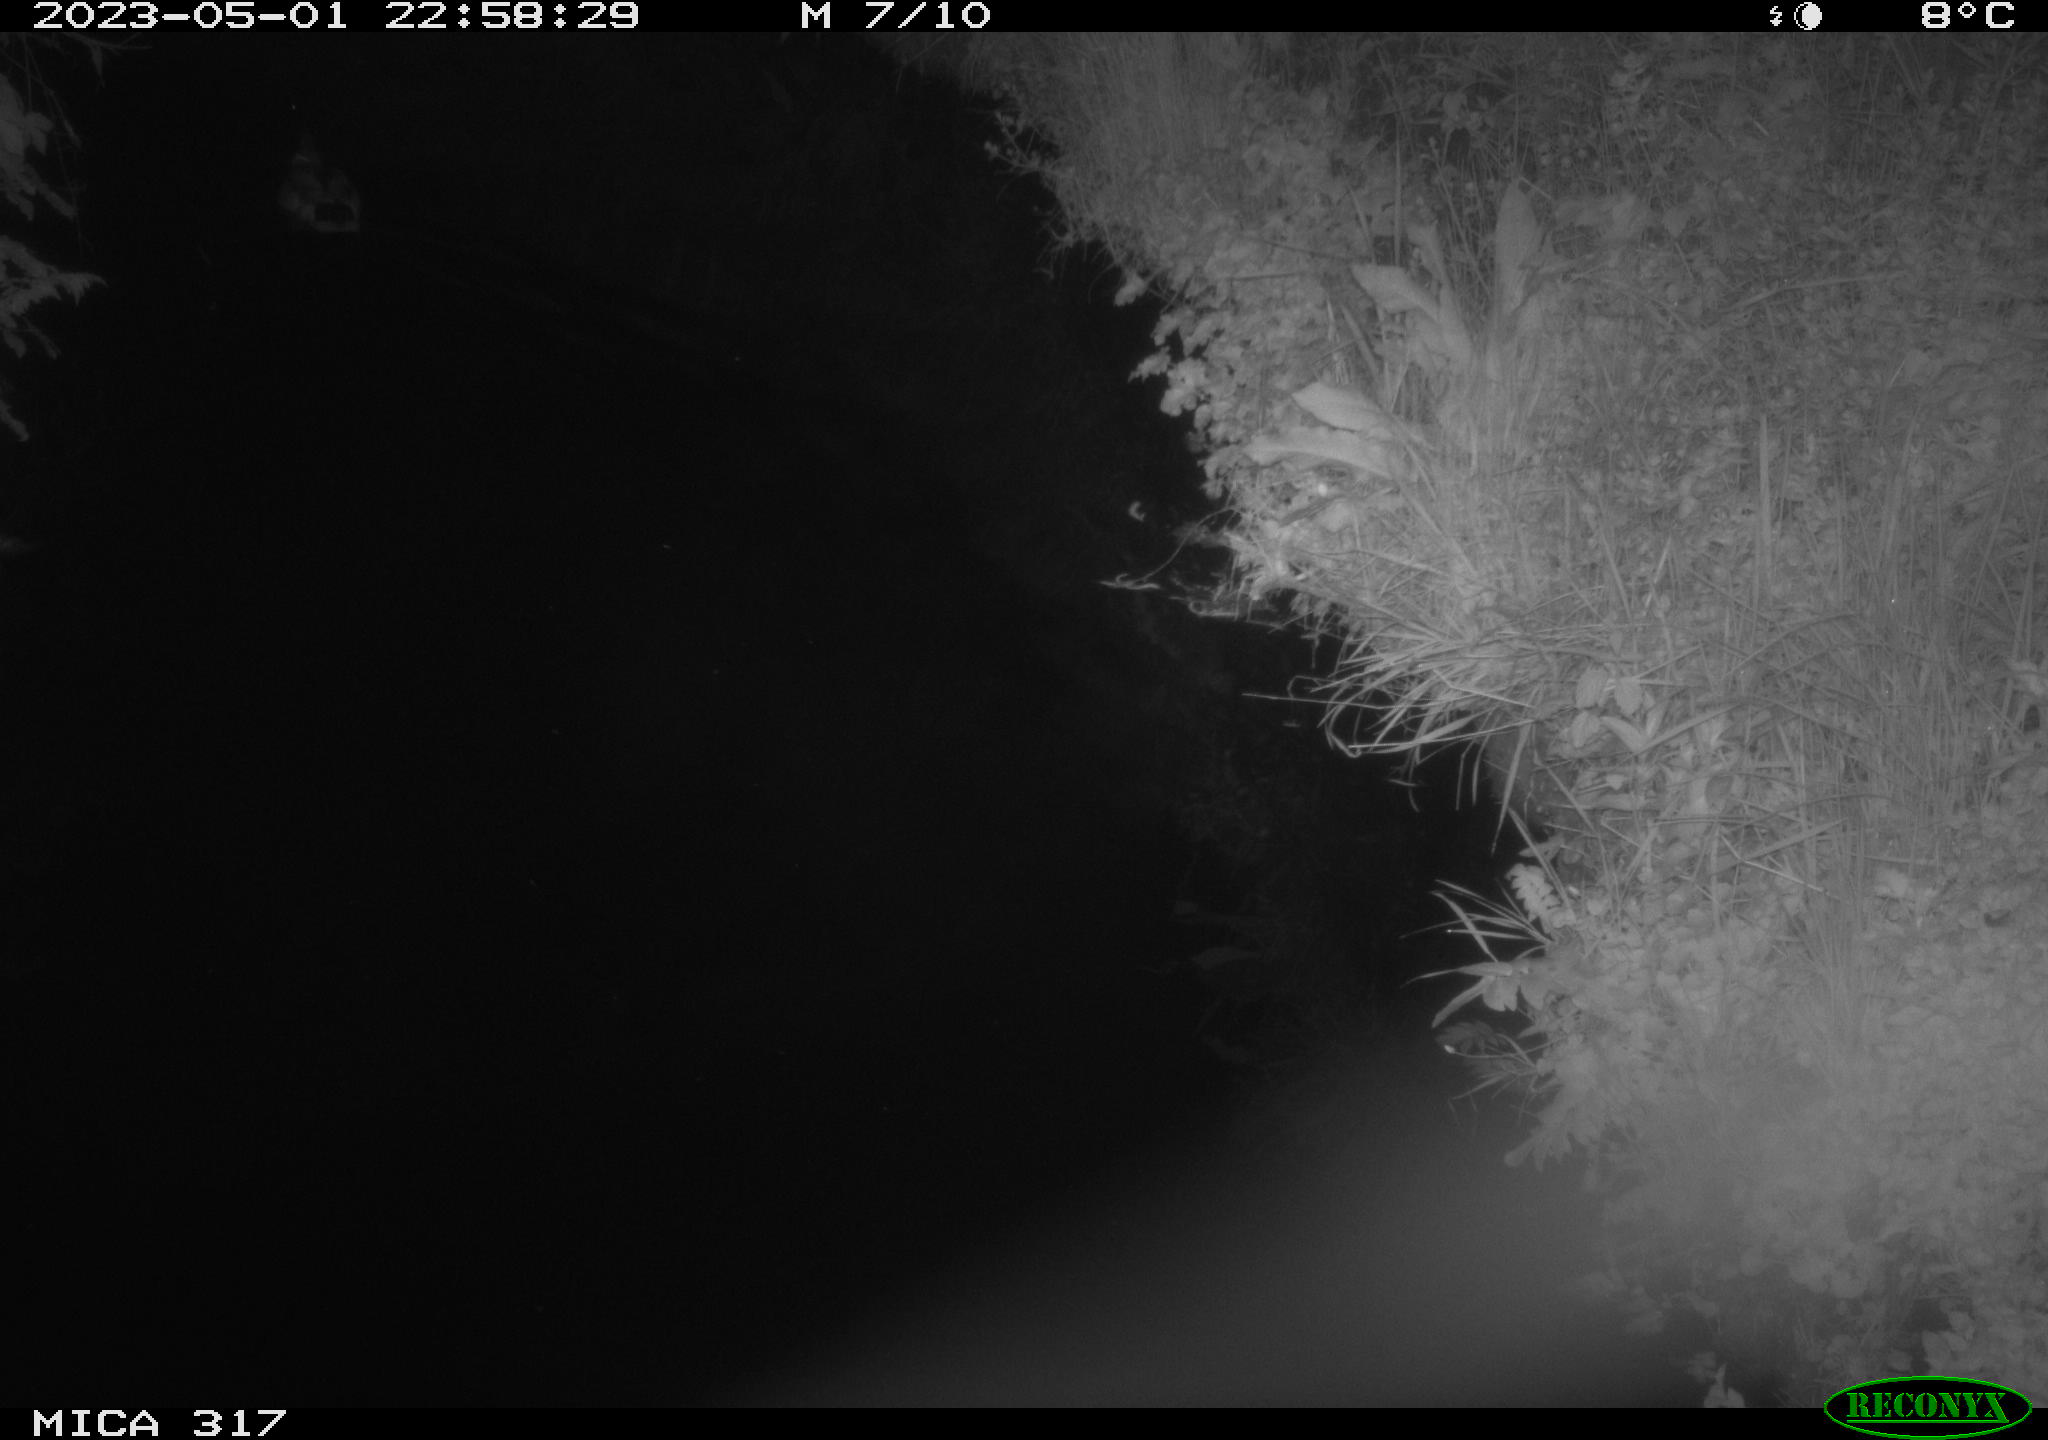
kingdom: Animalia
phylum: Chordata
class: Aves
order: Anseriformes
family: Anatidae
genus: Anas
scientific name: Anas
